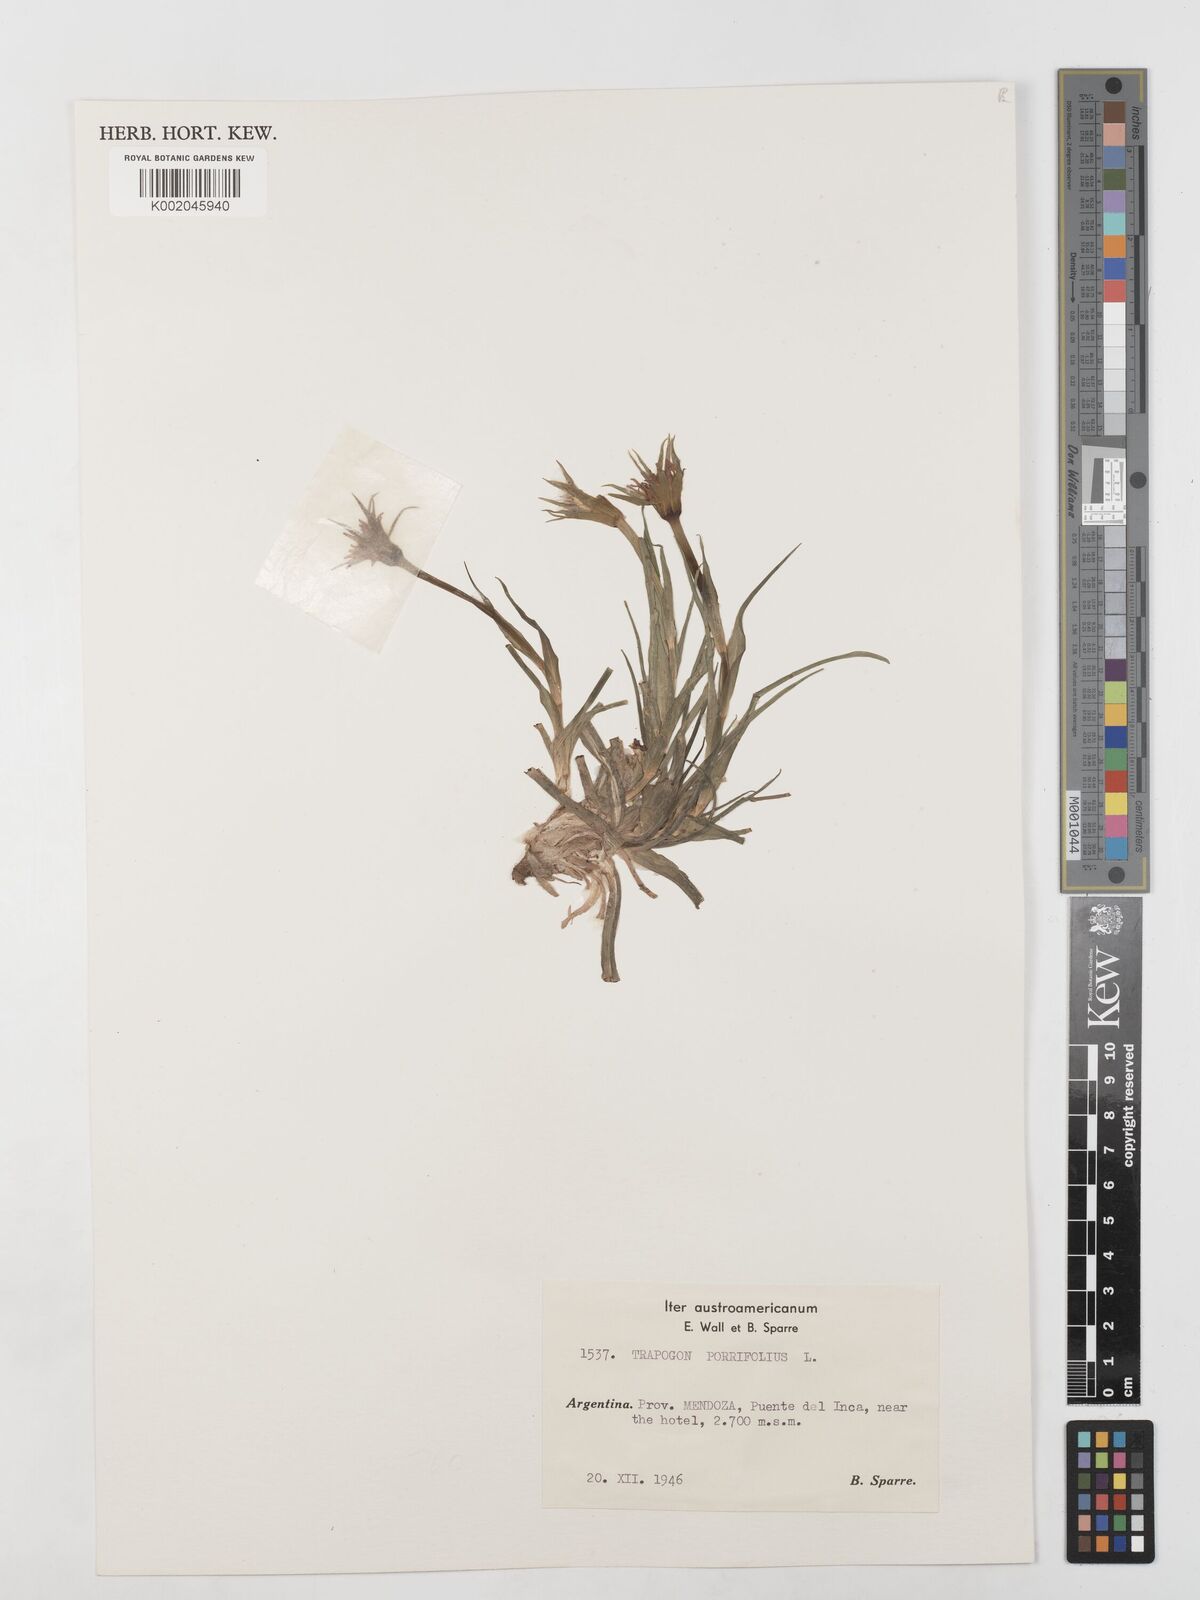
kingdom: Plantae
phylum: Tracheophyta
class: Magnoliopsida
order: Asterales
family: Asteraceae
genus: Tragopogon
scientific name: Tragopogon porrifolius
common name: Salsify
